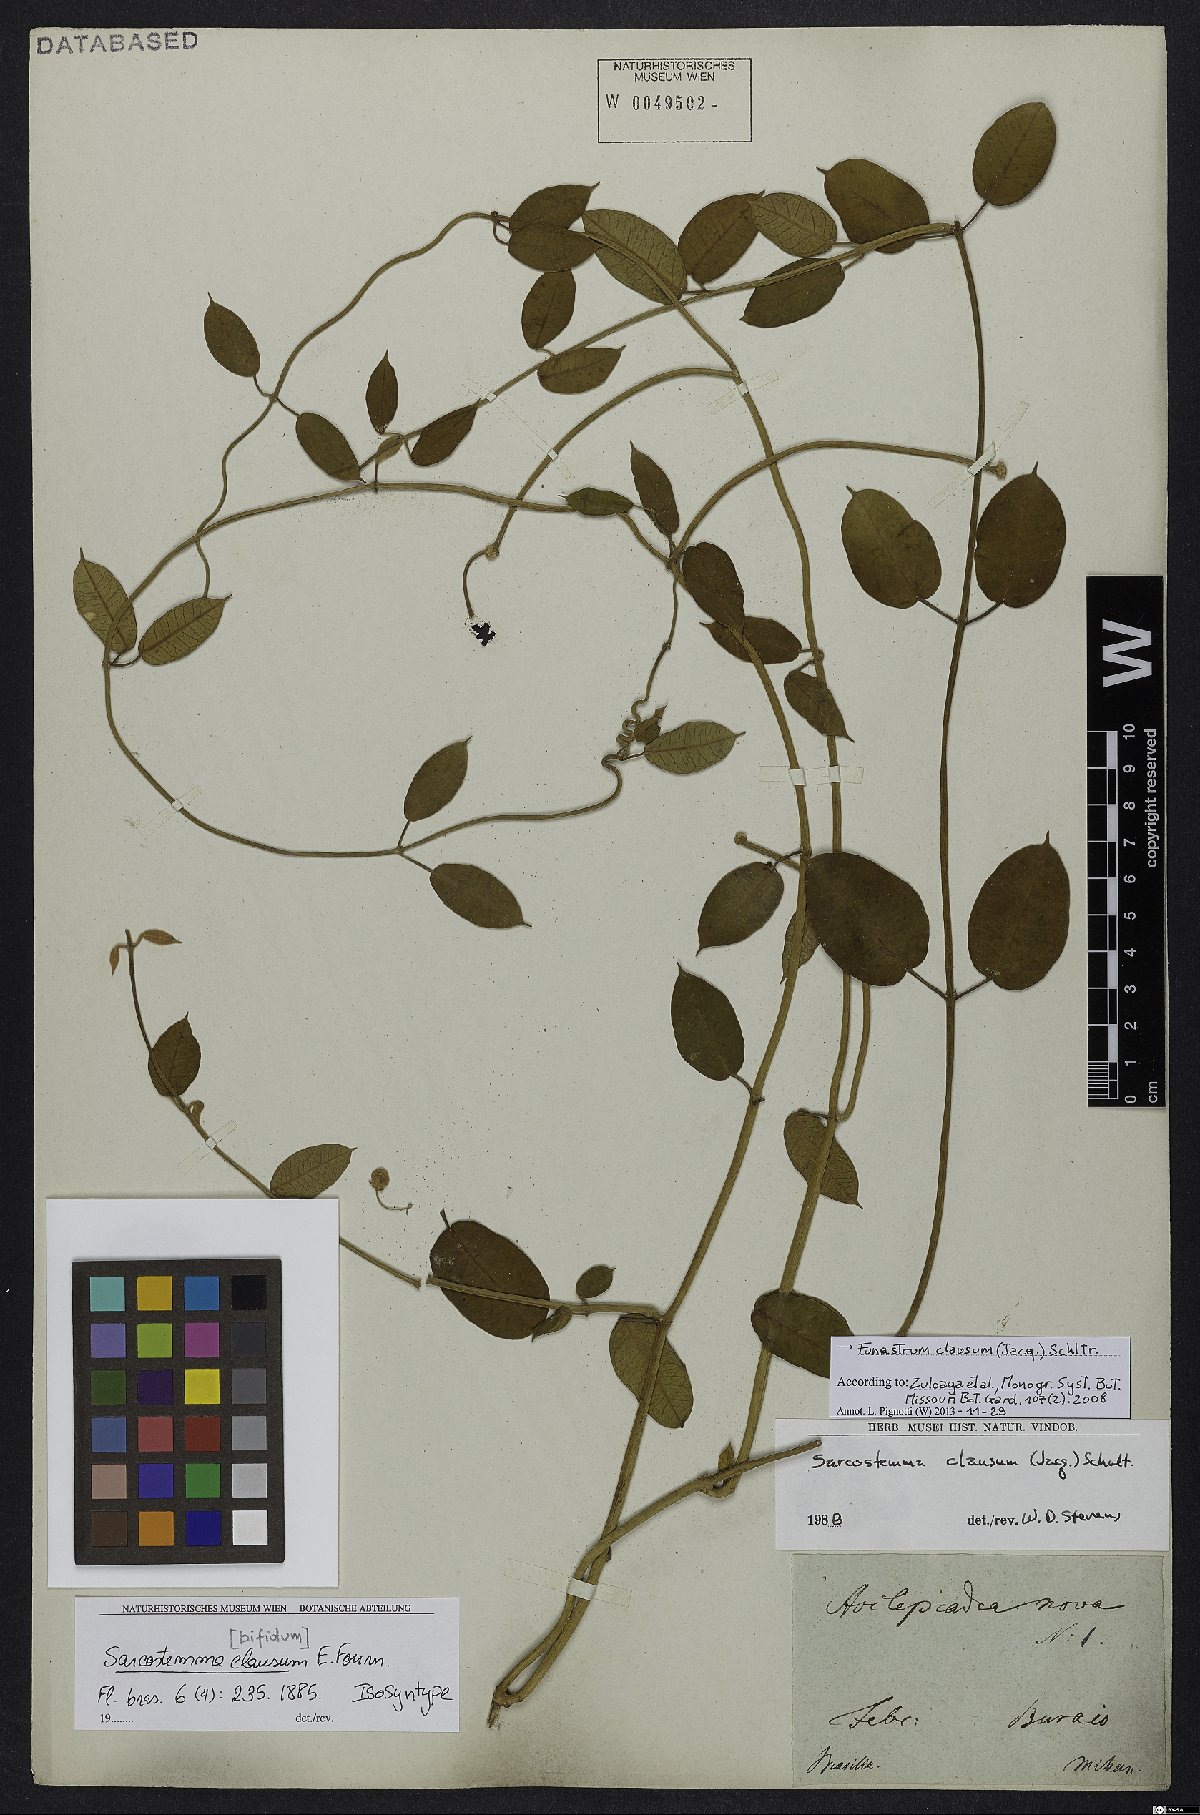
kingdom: Plantae
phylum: Tracheophyta
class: Magnoliopsida
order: Gentianales
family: Apocynaceae
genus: Funastrum
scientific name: Funastrum clausum
